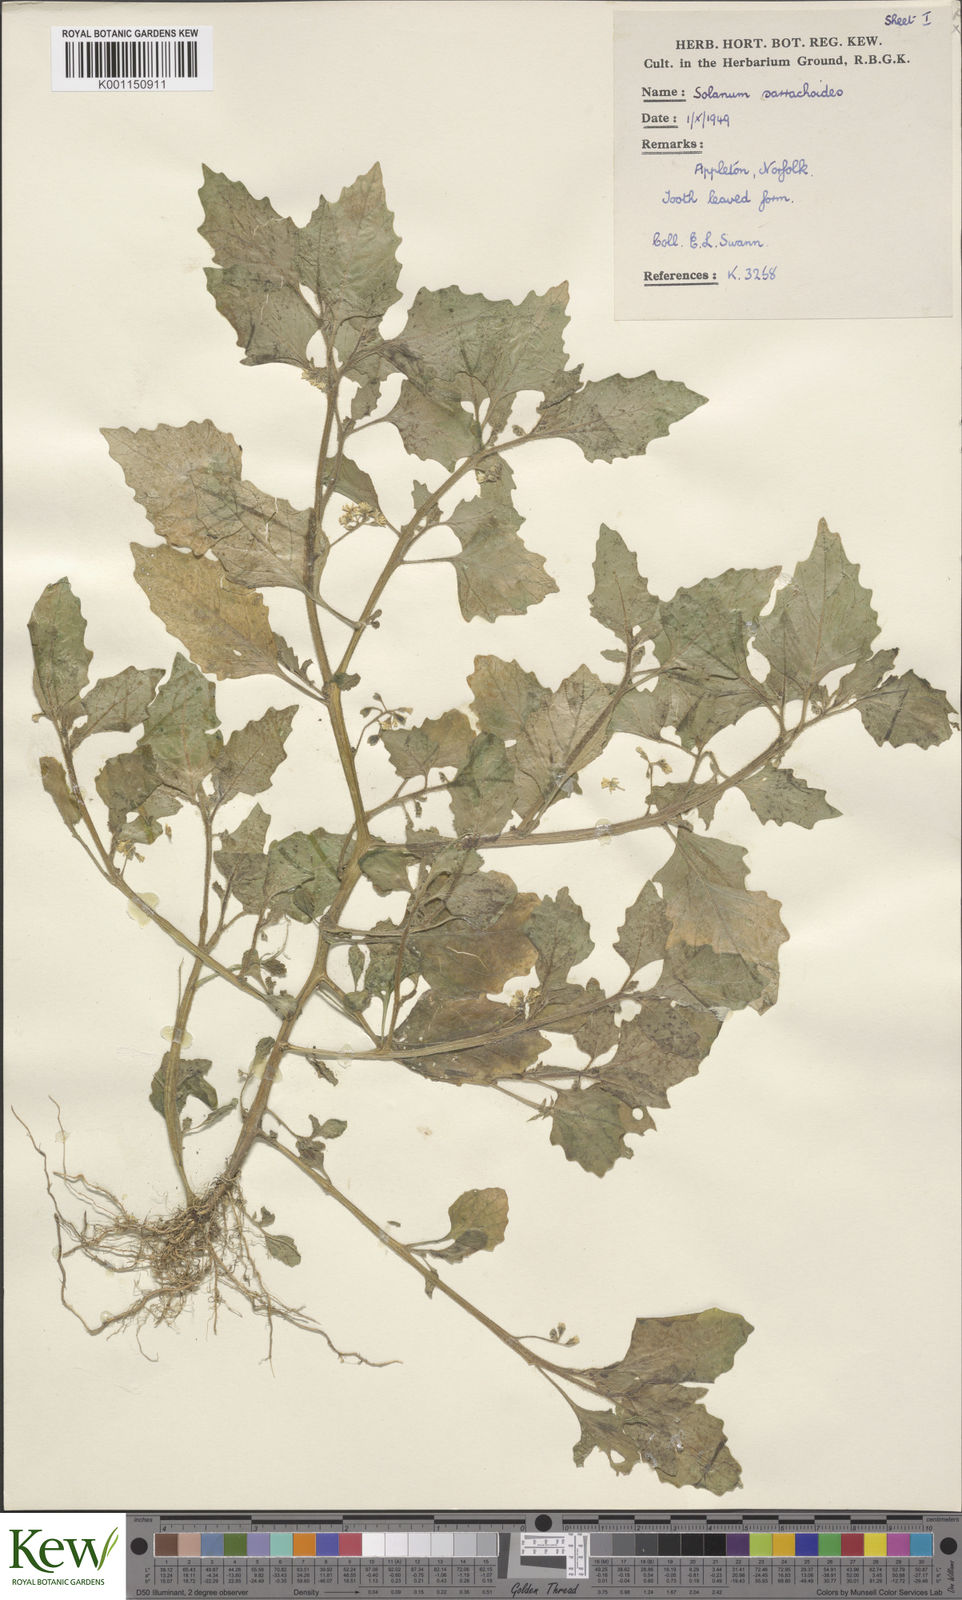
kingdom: Plantae
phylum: Tracheophyta
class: Magnoliopsida
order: Solanales
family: Solanaceae
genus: Solanum
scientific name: Solanum nitidibaccatum
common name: Hairy nightshade
